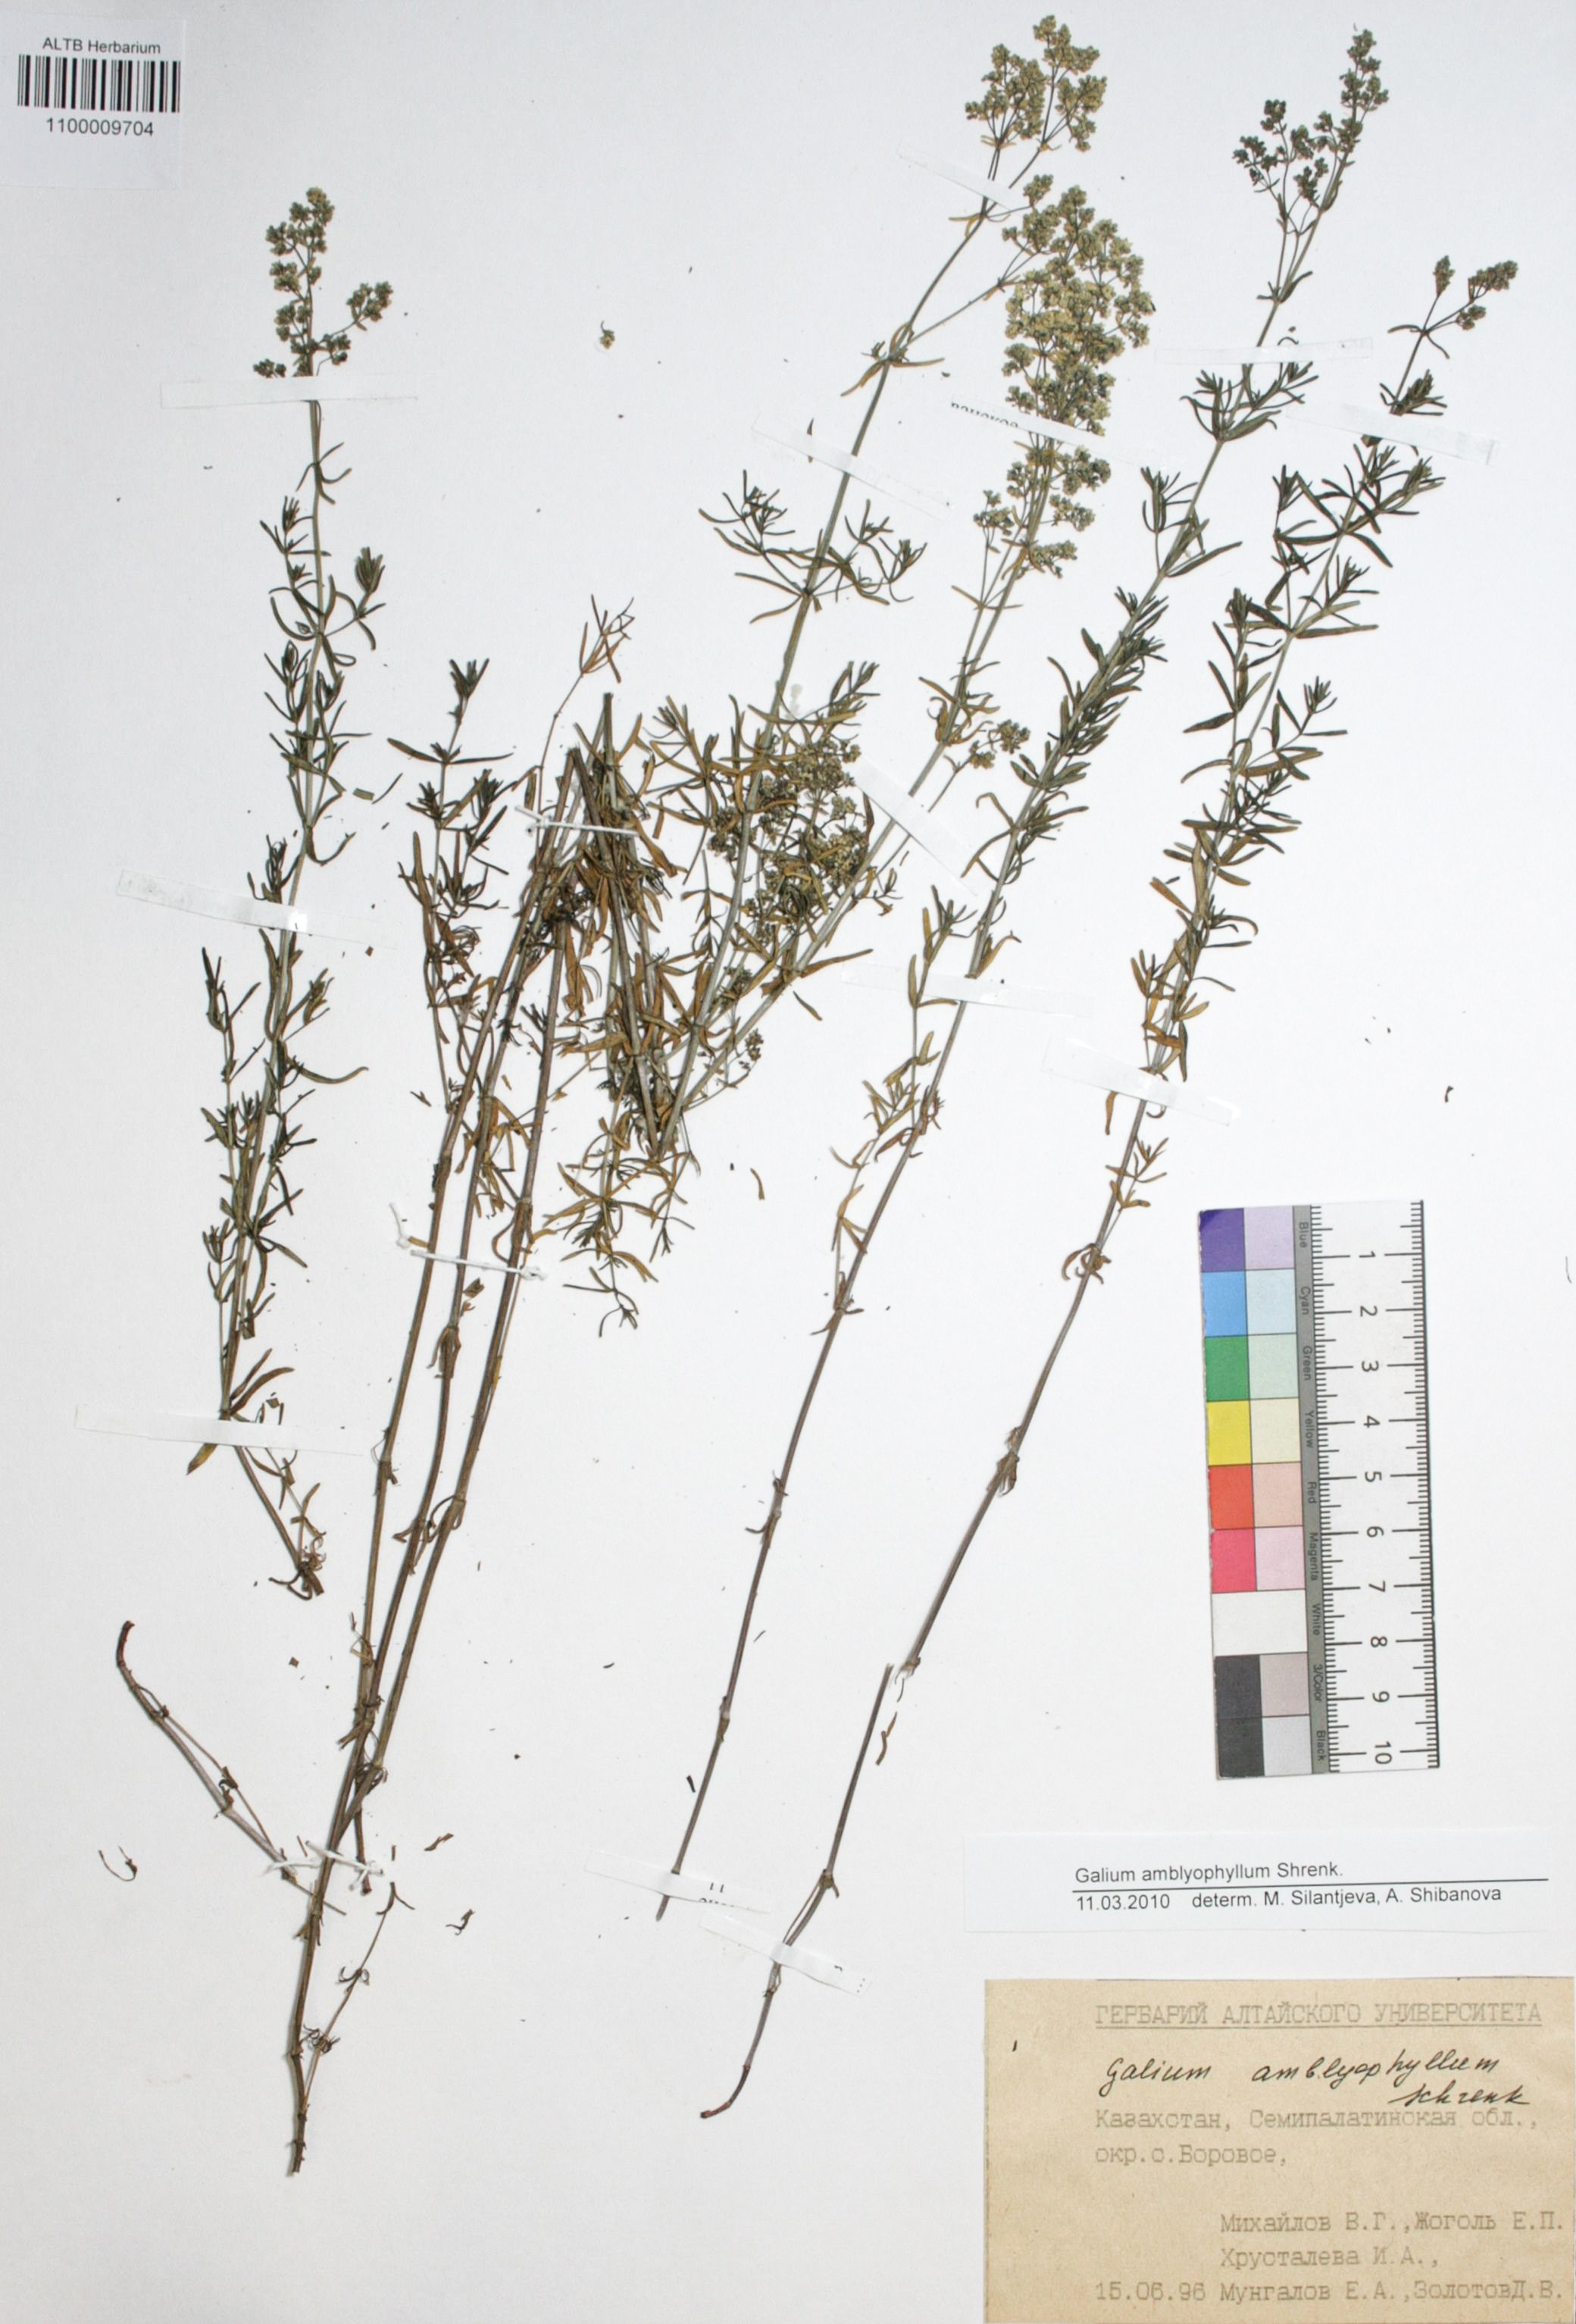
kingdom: Plantae
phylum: Tracheophyta
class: Magnoliopsida
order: Gentianales
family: Rubiaceae
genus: Galium
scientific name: Galium amblyophyllum
